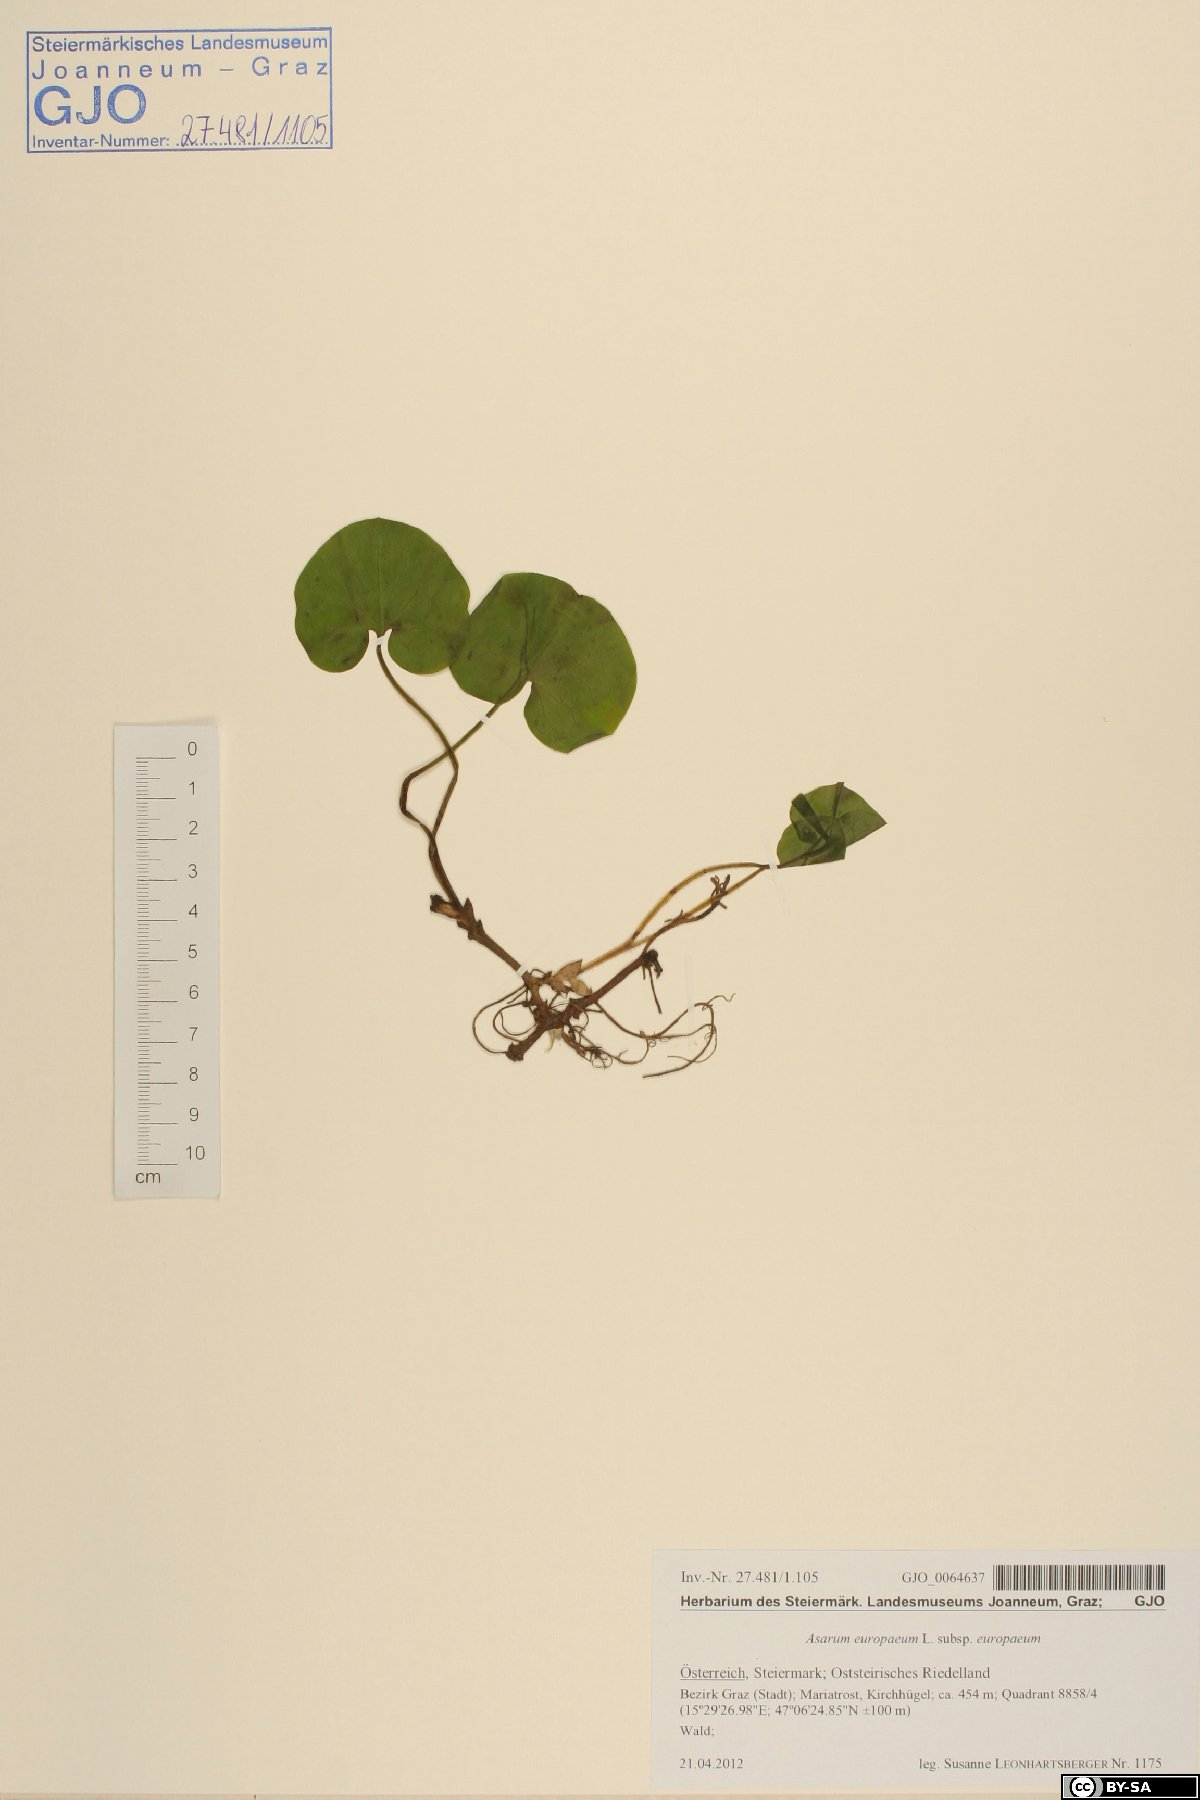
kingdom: Plantae
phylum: Tracheophyta
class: Magnoliopsida
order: Piperales
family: Aristolochiaceae
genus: Asarum
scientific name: Asarum europaeum
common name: Asarabacca
